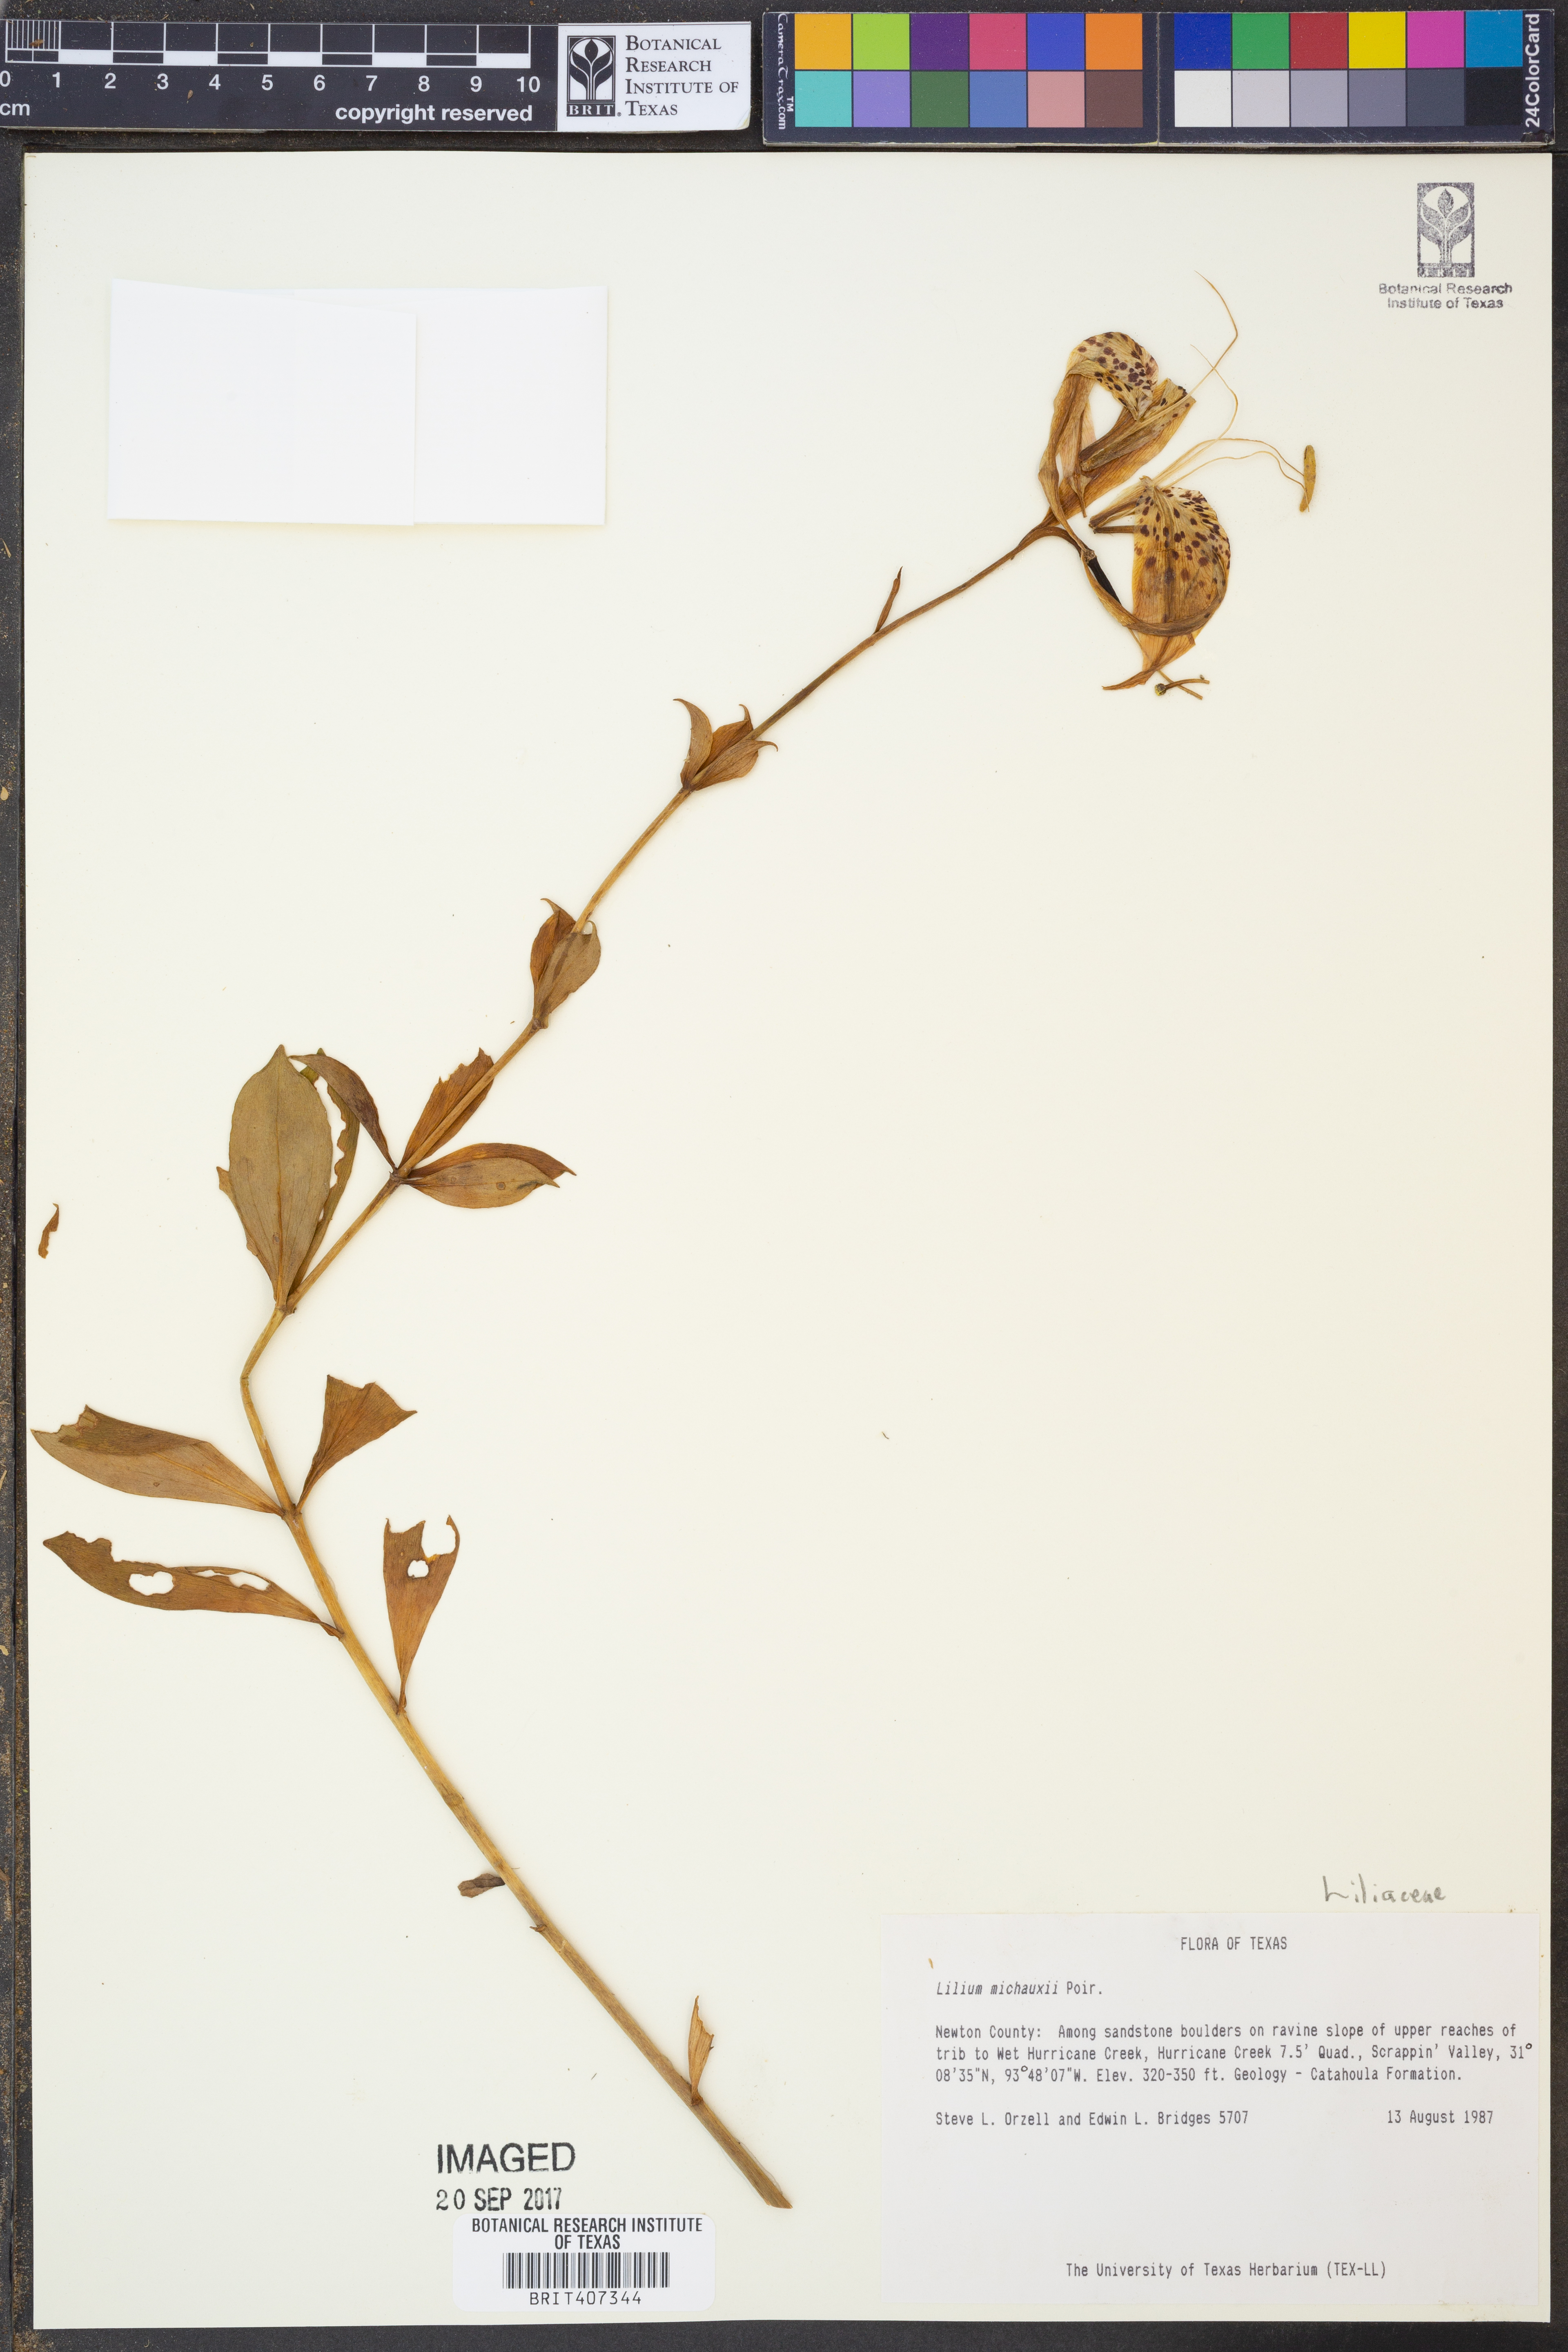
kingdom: Plantae
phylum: Tracheophyta
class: Liliopsida
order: Liliales
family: Liliaceae
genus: Lilium
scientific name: Lilium michauxii
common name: Carolina lily
